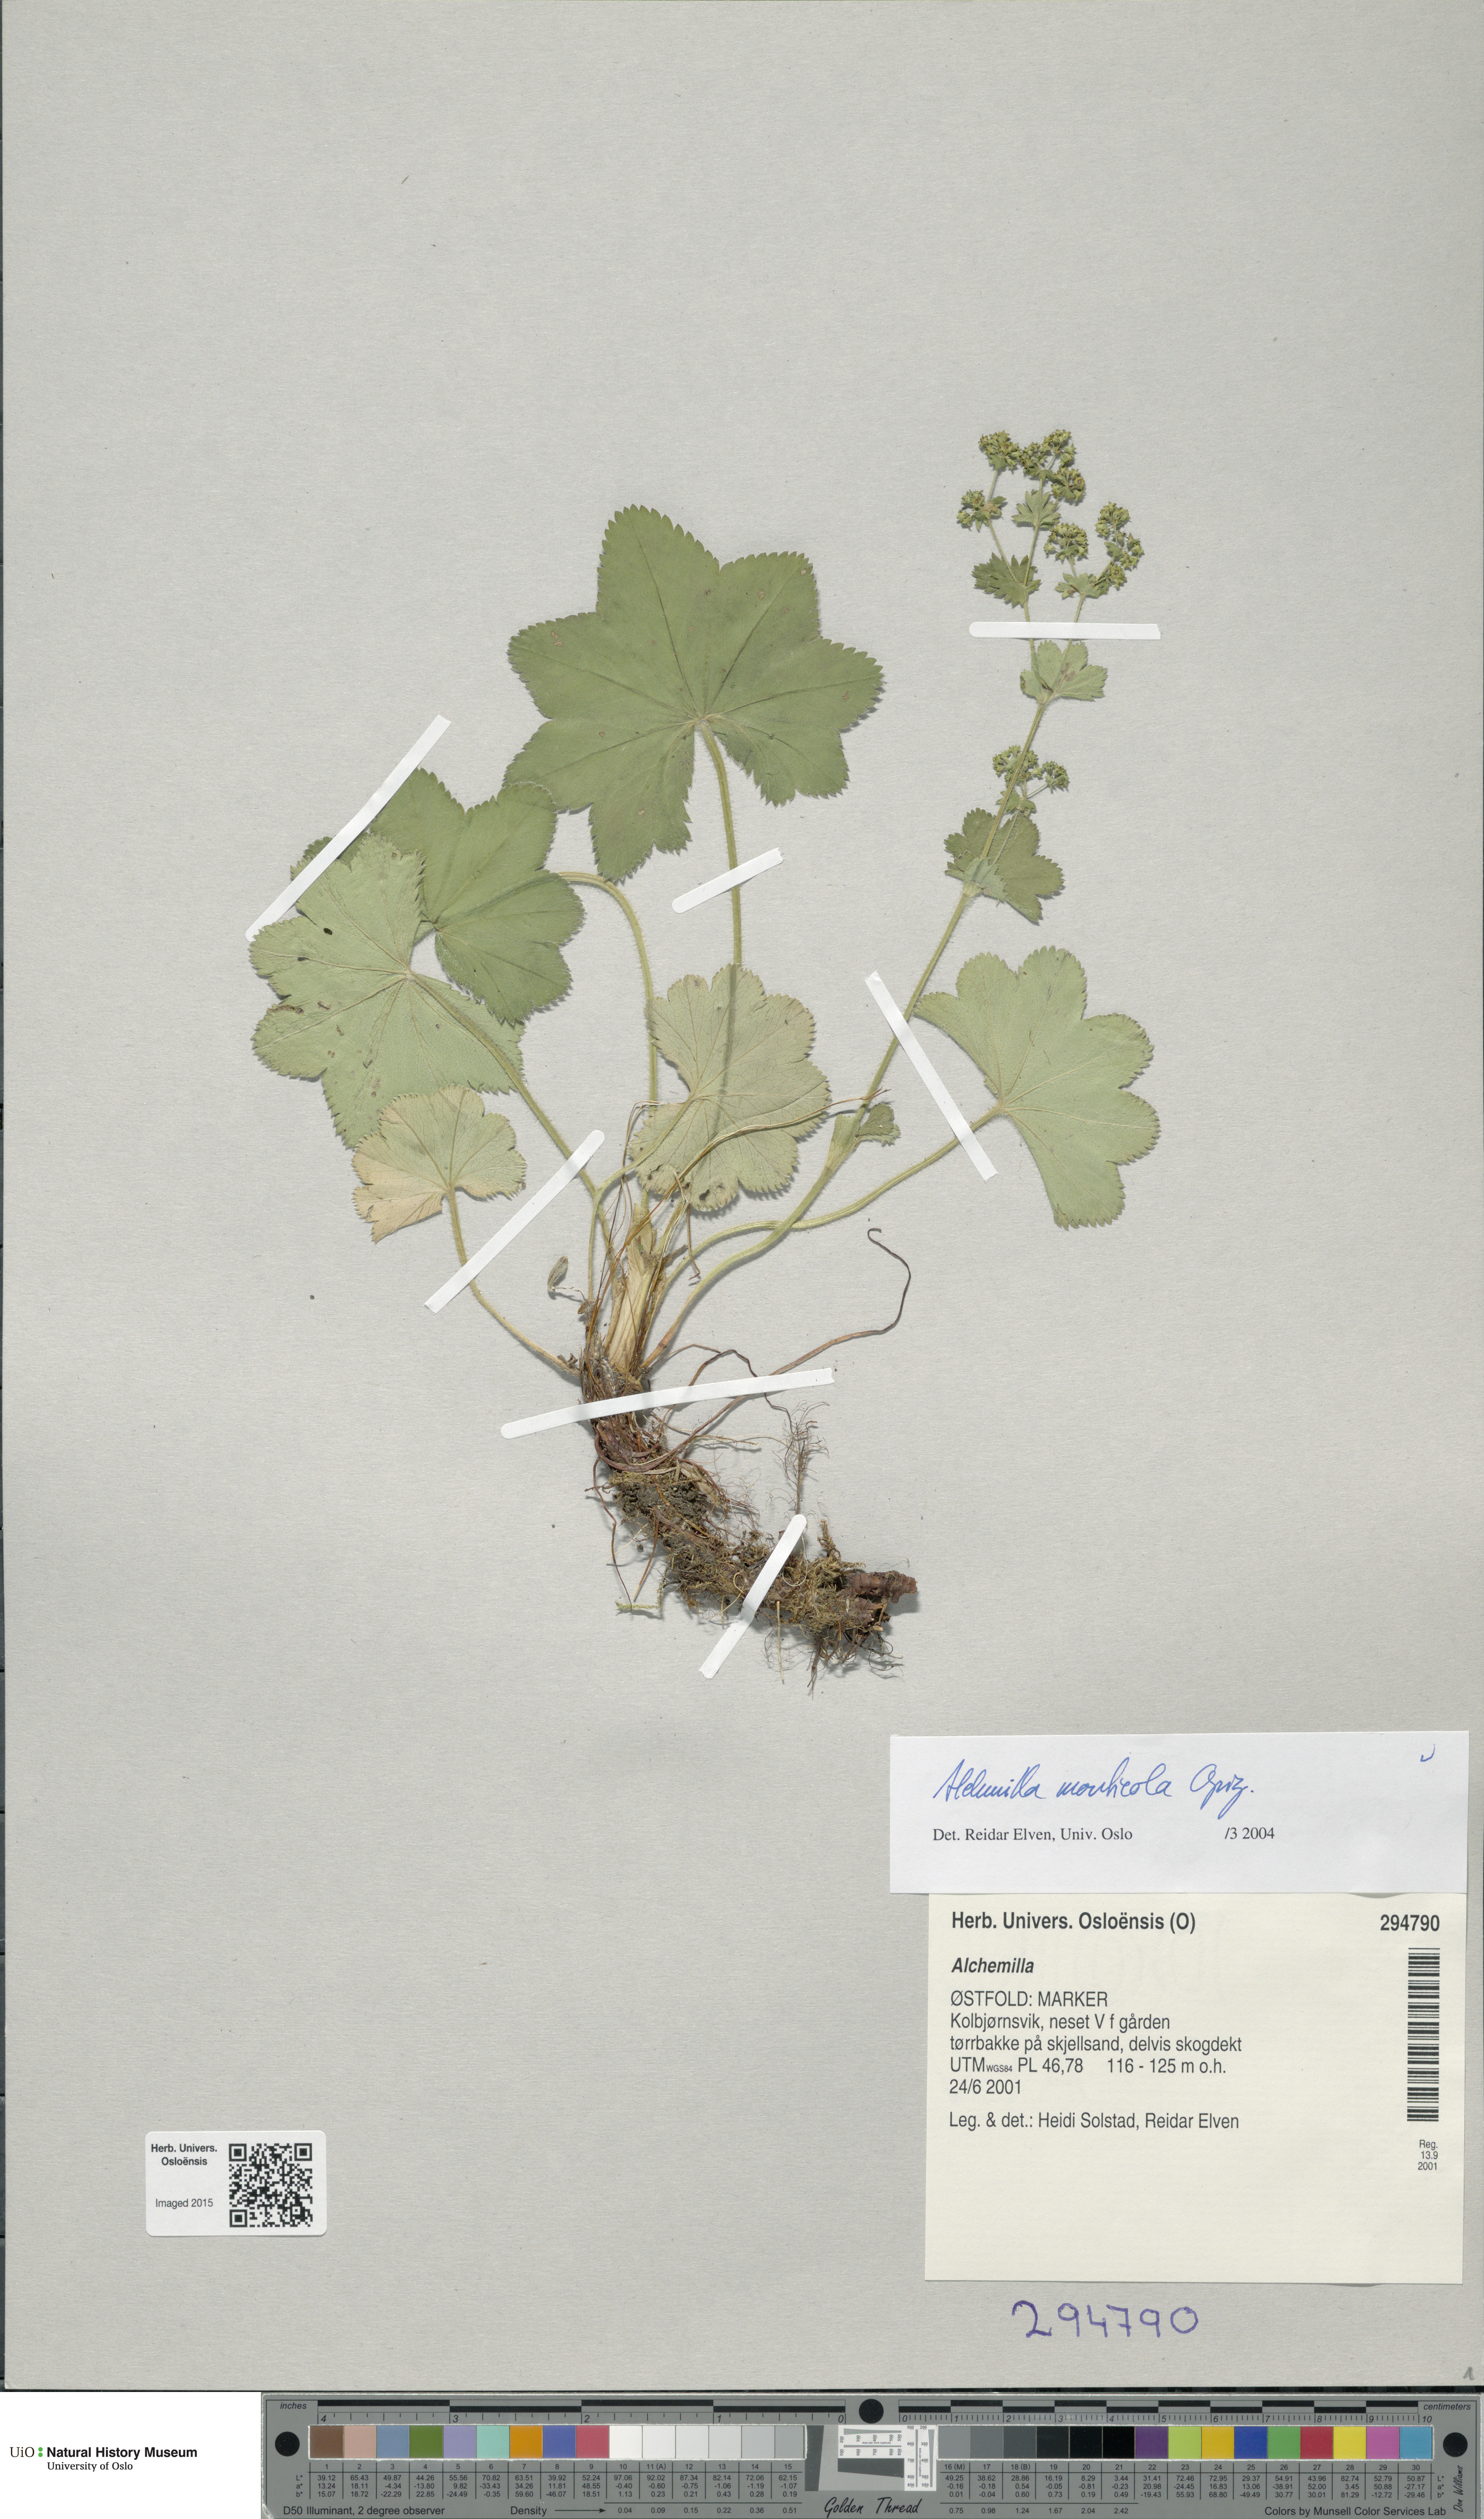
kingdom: Plantae
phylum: Tracheophyta
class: Magnoliopsida
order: Rosales
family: Rosaceae
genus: Alchemilla
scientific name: Alchemilla monticola
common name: Hairy lady's mantle
